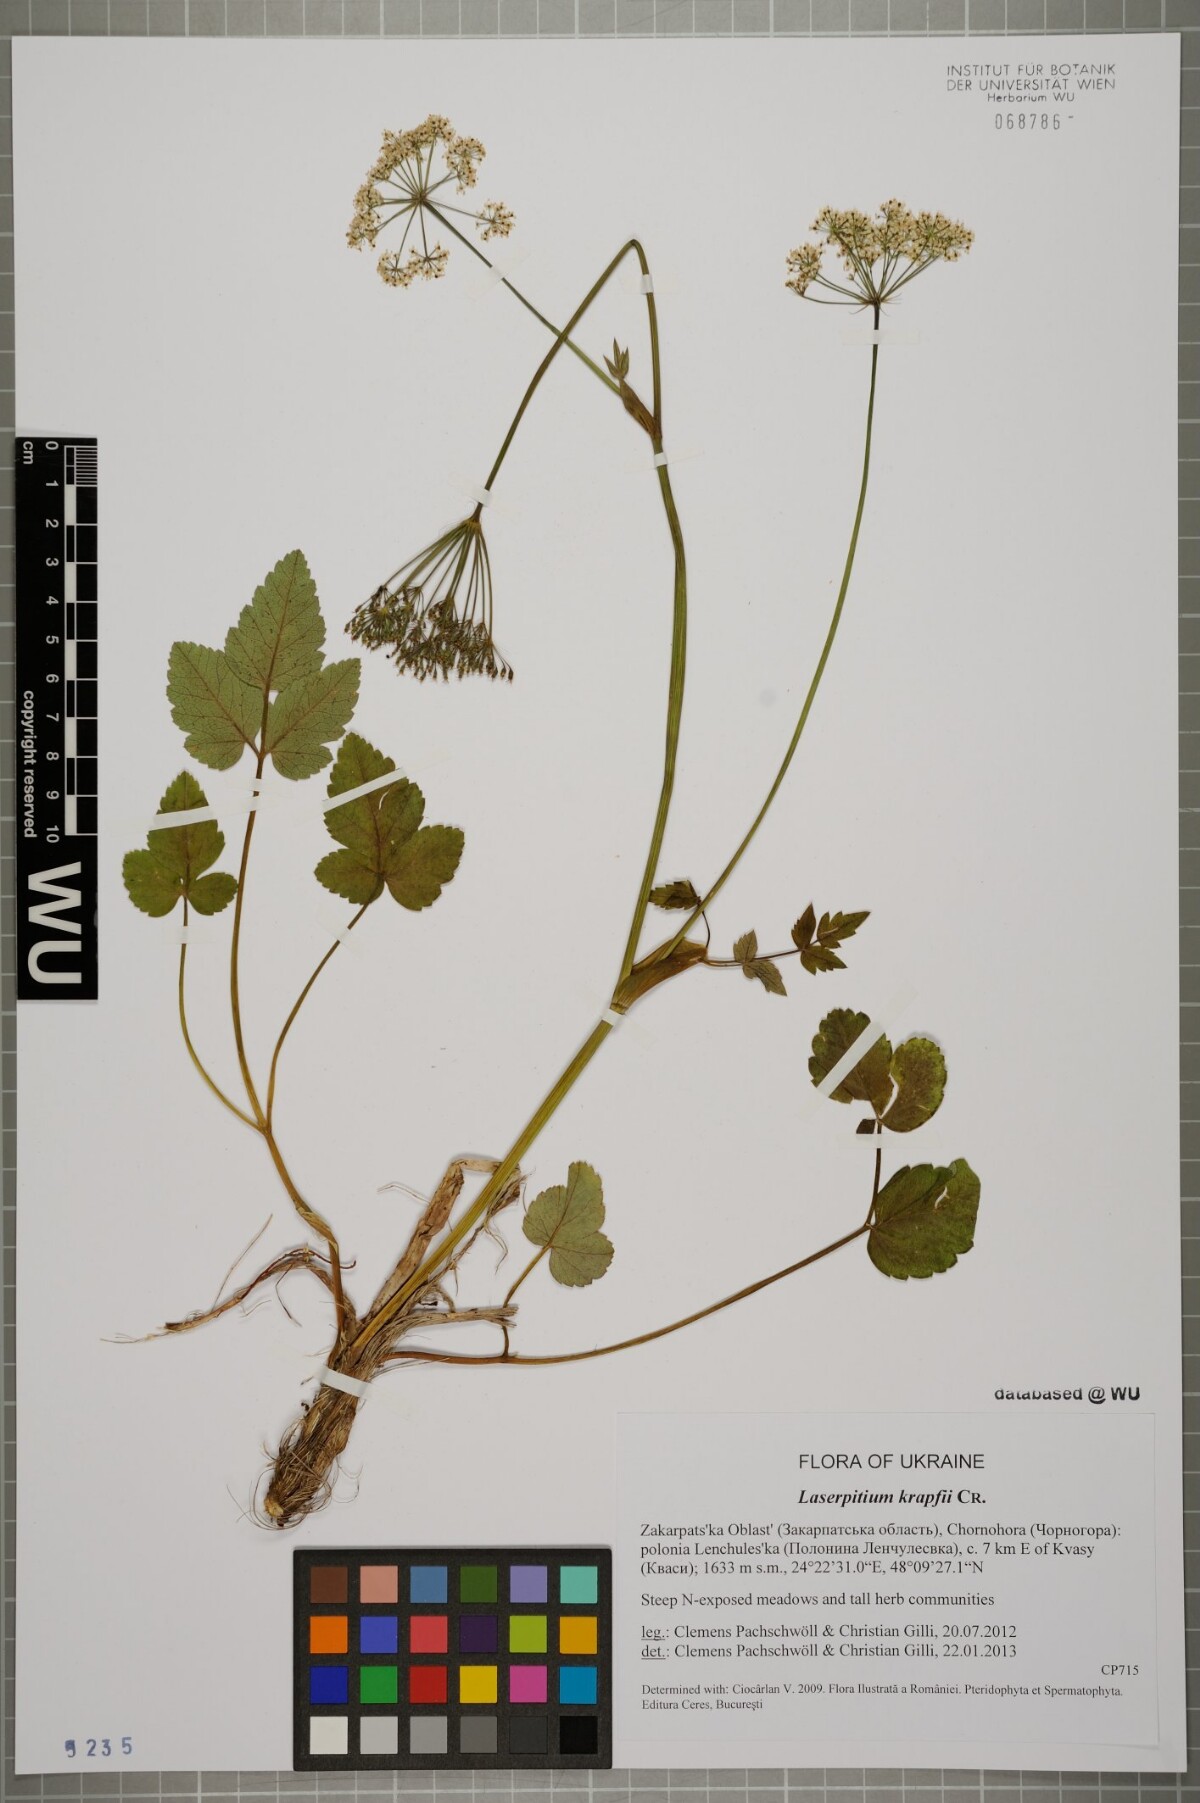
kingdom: Plantae
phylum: Tracheophyta
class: Magnoliopsida
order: Apiales
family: Apiaceae
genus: Laserpitium
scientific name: Laserpitium krapffii
